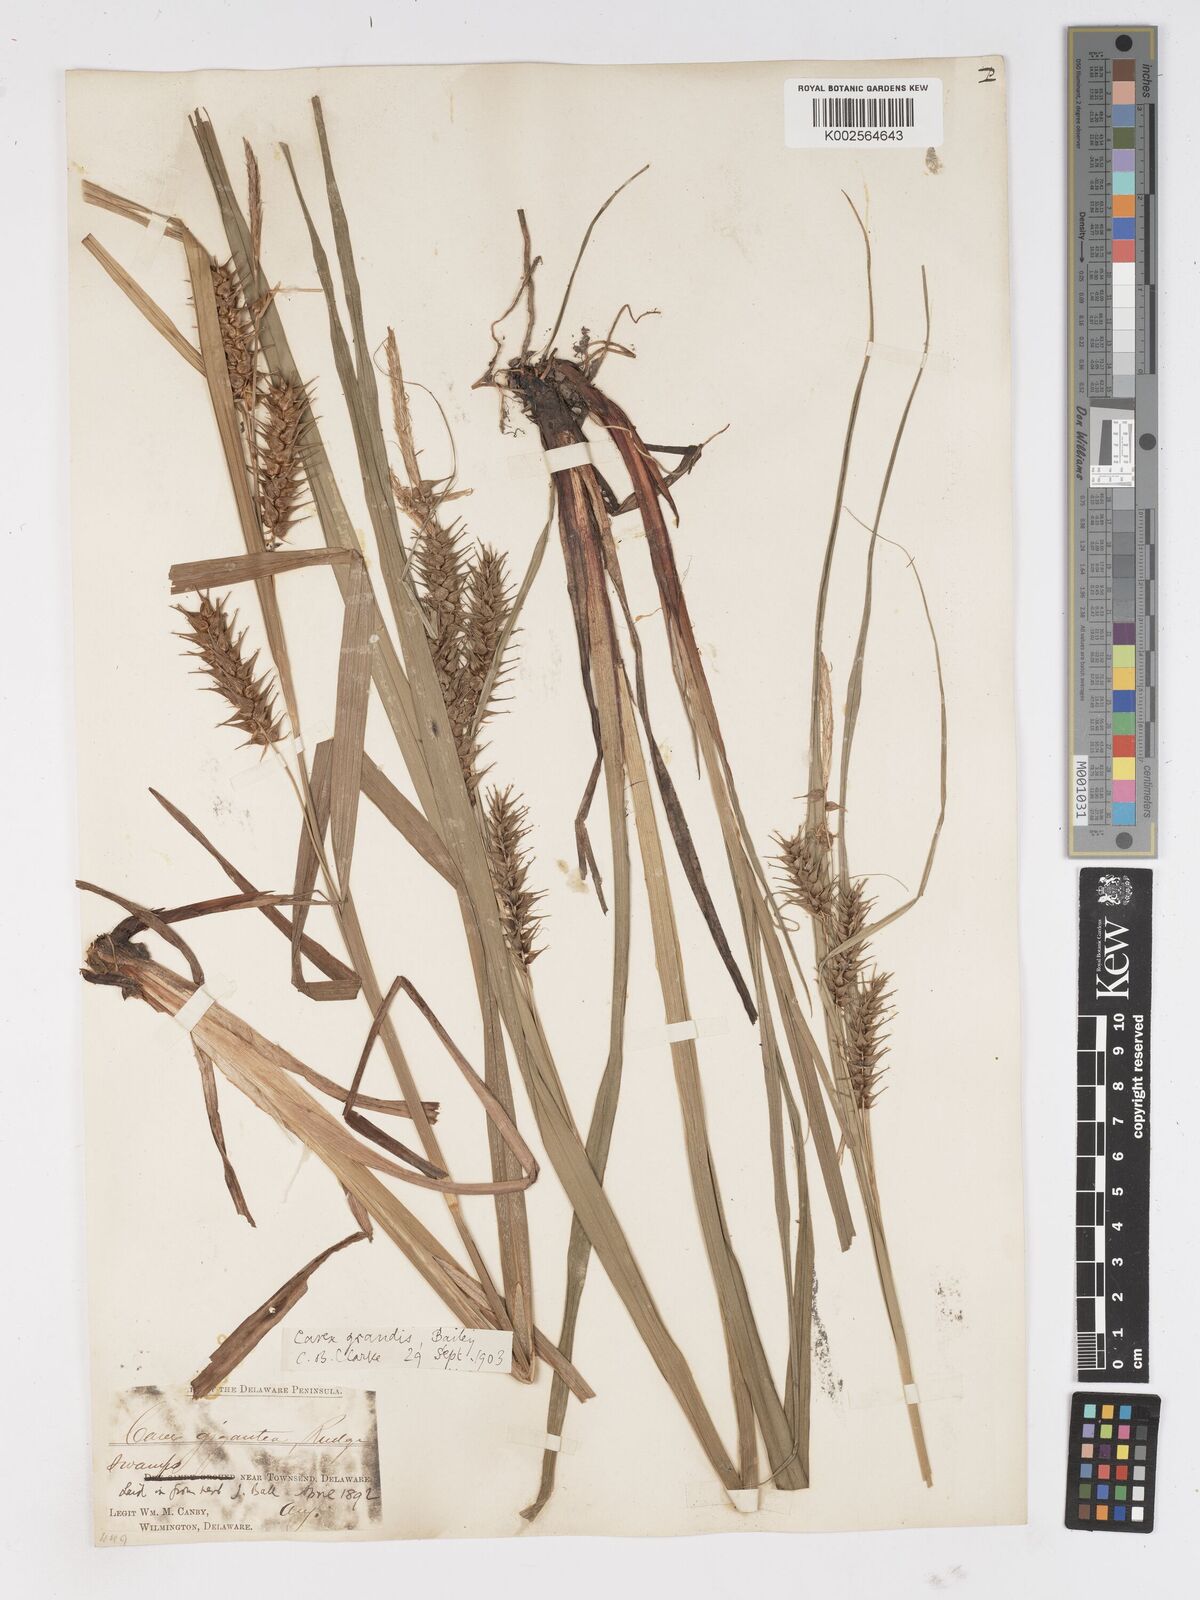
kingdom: Plantae
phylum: Tracheophyta
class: Liliopsida
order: Poales
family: Cyperaceae
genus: Carex
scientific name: Carex gigantea
